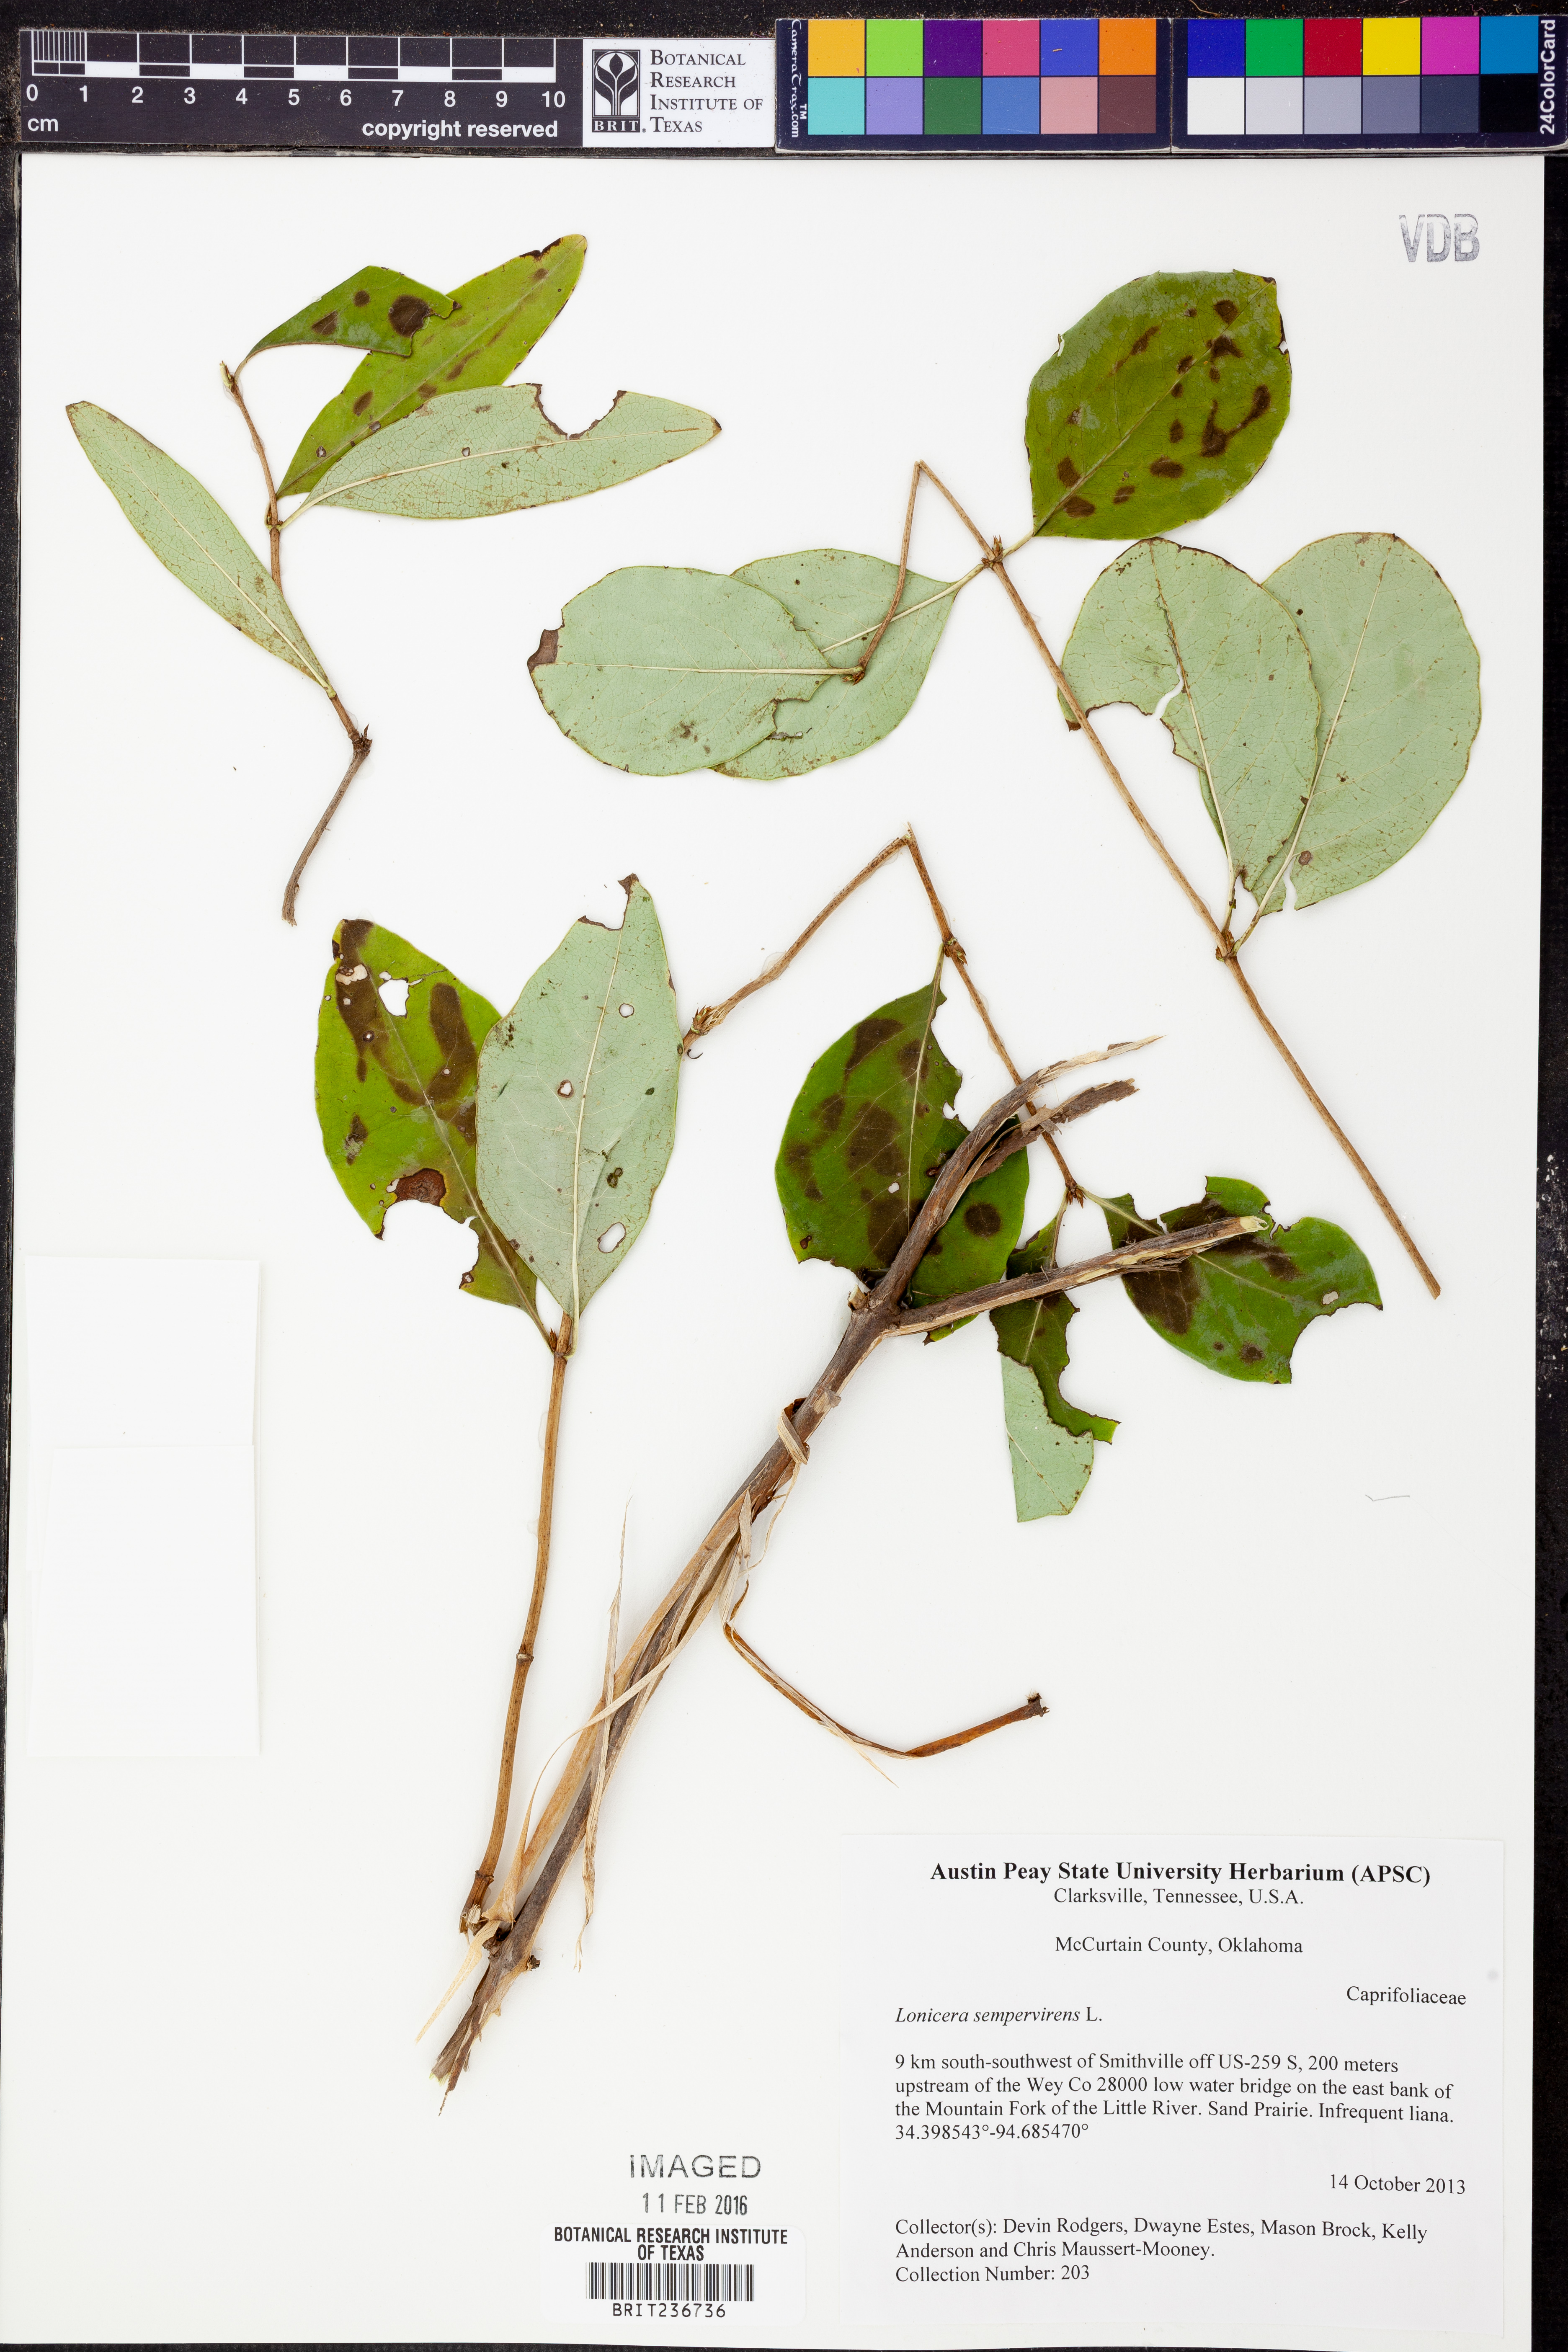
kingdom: Plantae
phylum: Tracheophyta
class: Magnoliopsida
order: Dipsacales
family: Caprifoliaceae
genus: Lonicera
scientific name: Lonicera sempervirens
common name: Coral honeysuckle
